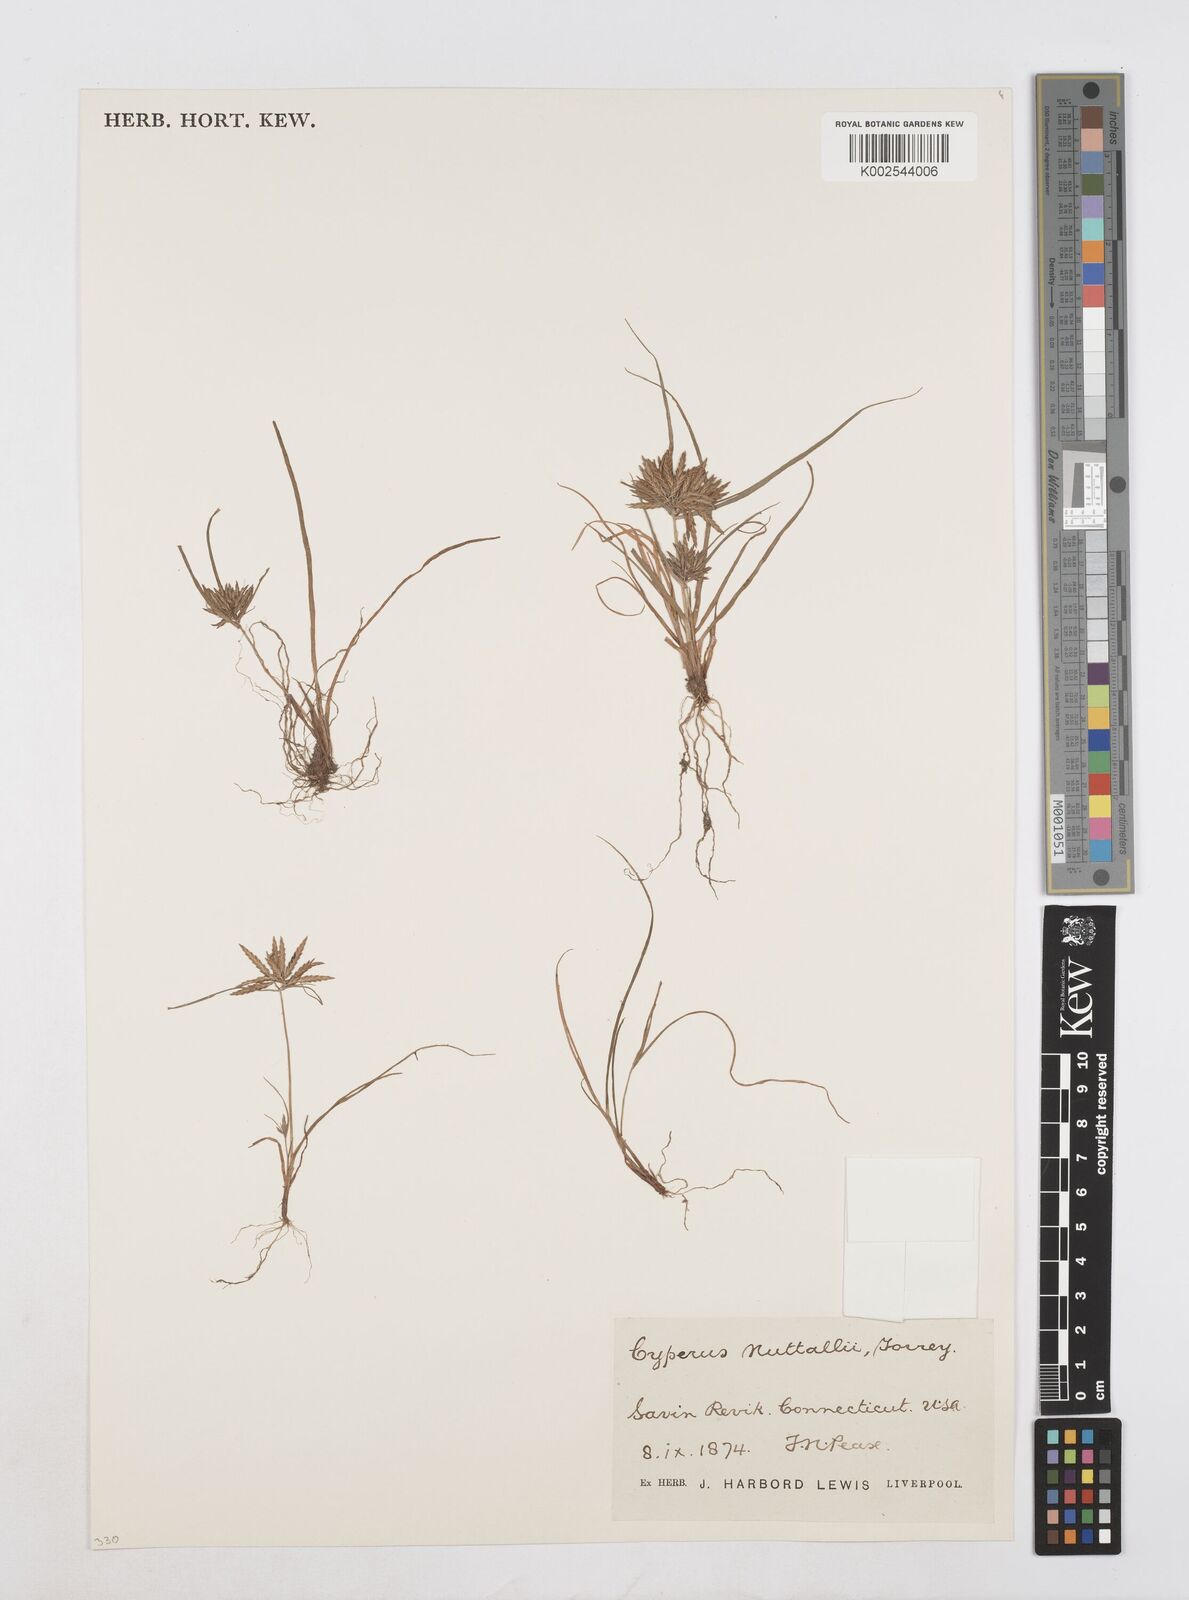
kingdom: Plantae
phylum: Tracheophyta
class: Liliopsida
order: Poales
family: Cyperaceae
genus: Cyperus
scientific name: Cyperus filicinus
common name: Fern flatsedge
